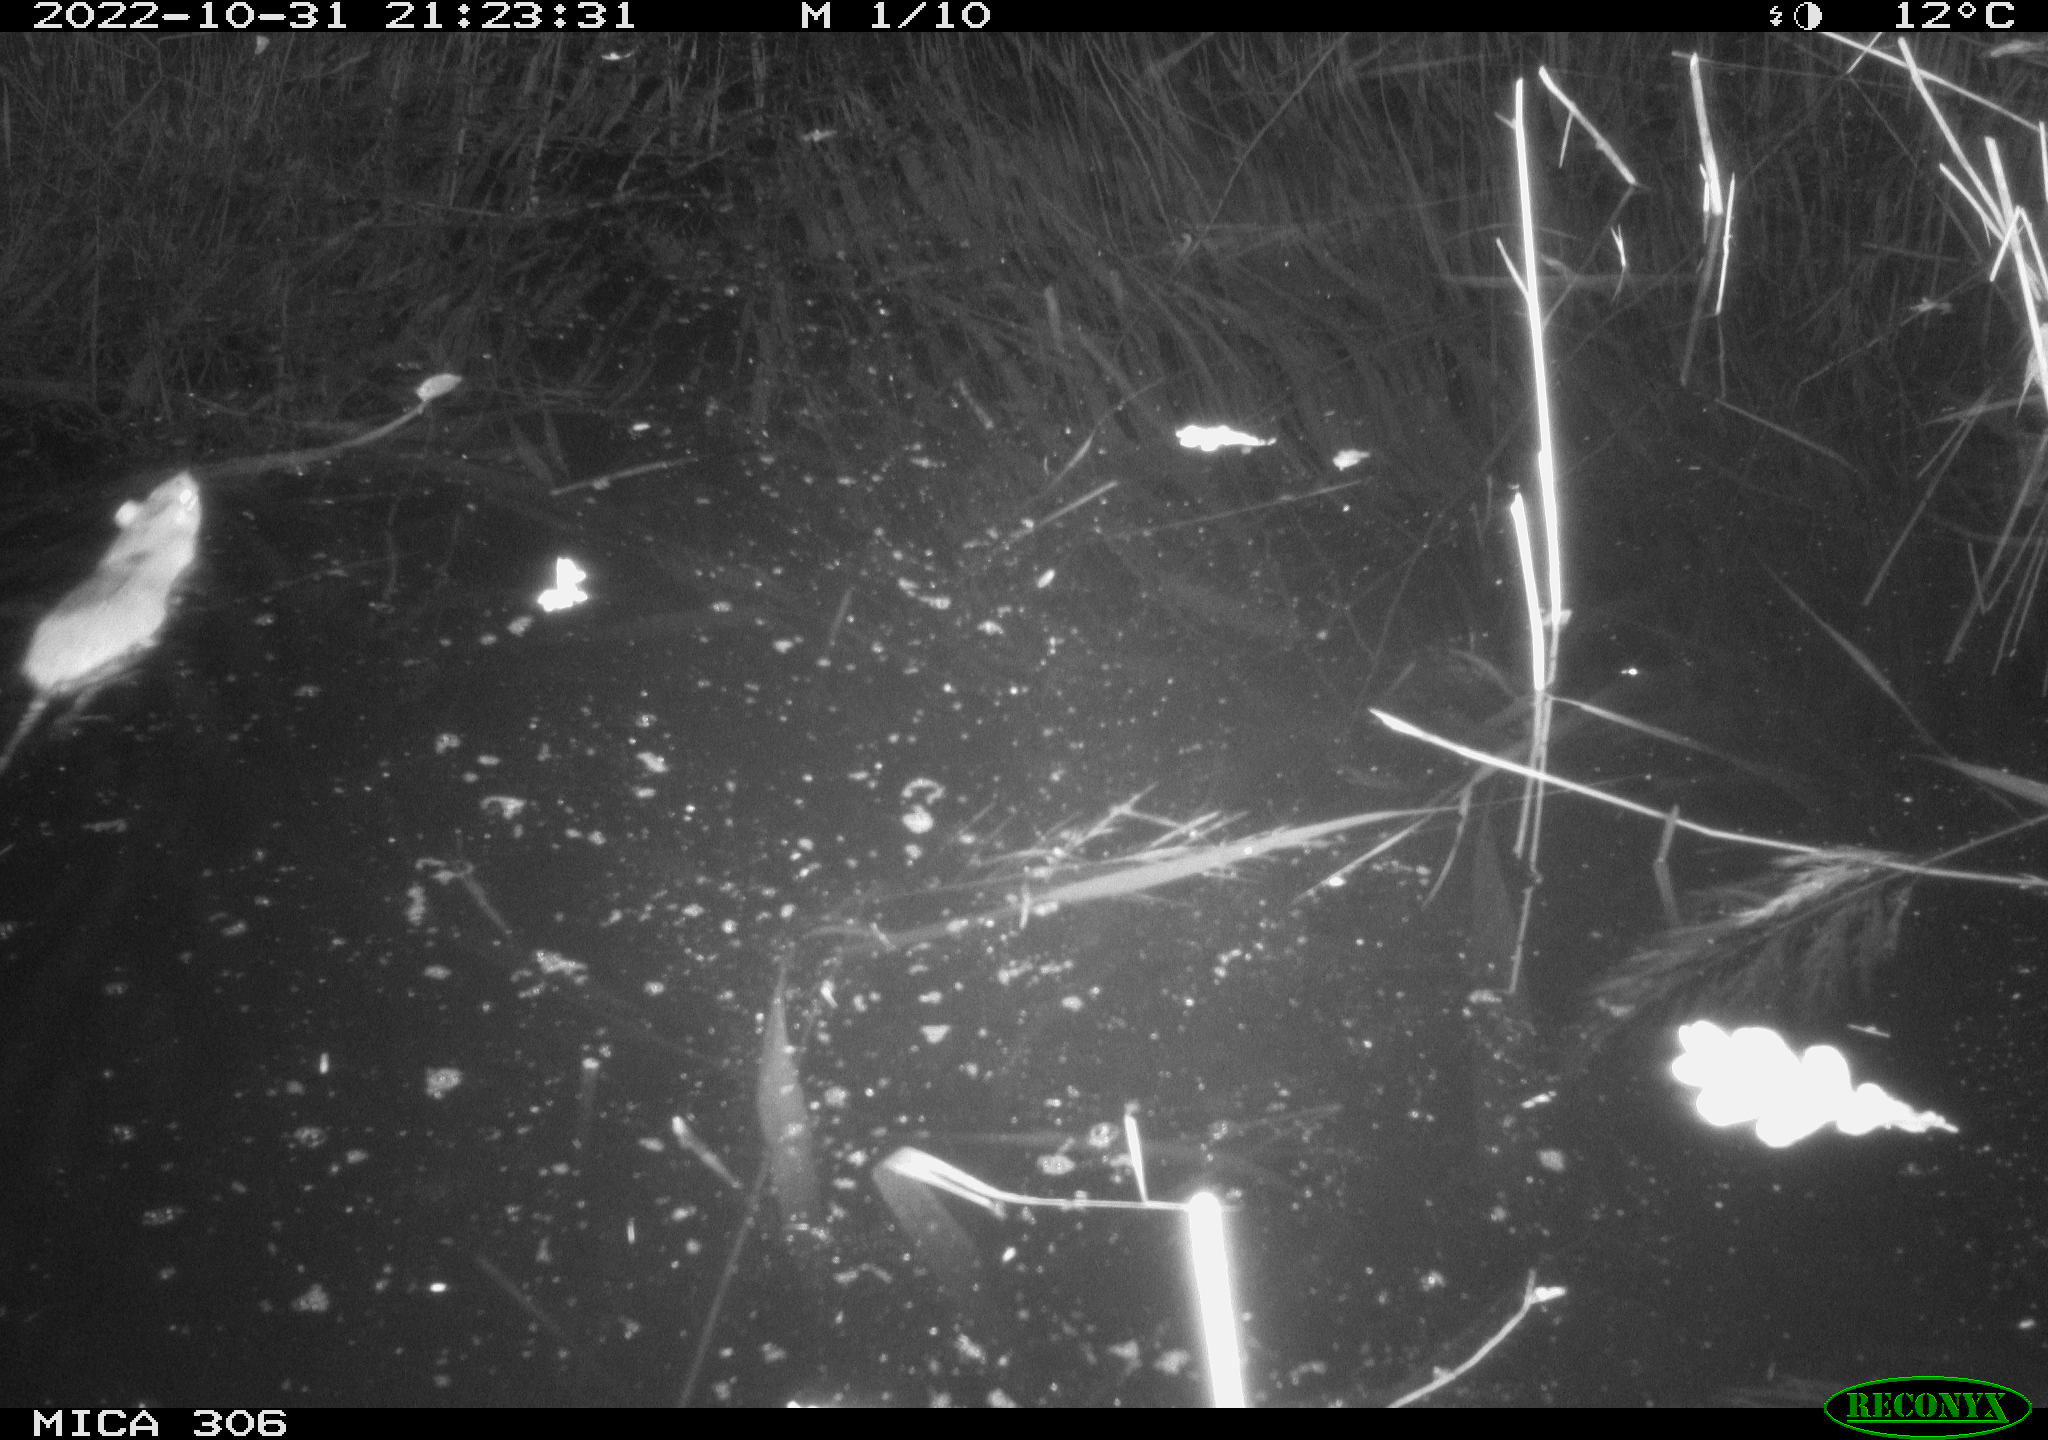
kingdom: Animalia
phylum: Chordata
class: Mammalia
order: Rodentia
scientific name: Rodentia
